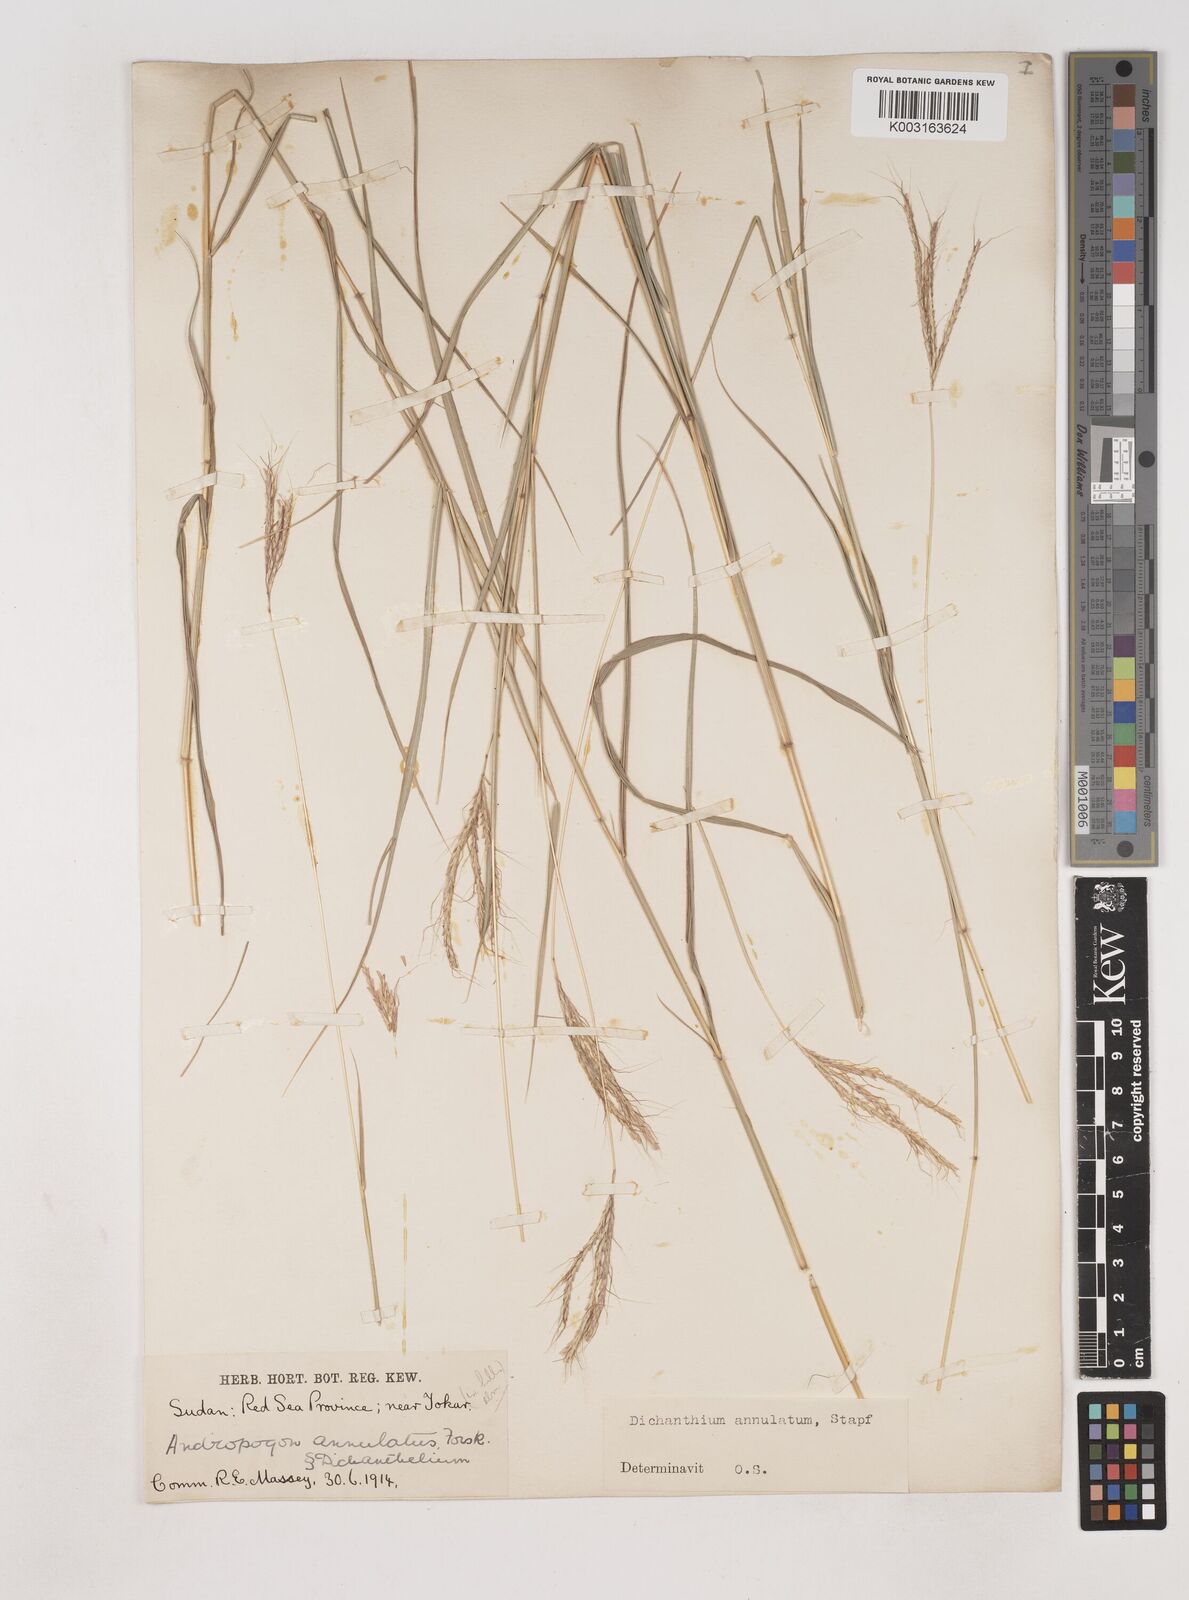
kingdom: Plantae
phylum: Tracheophyta
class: Liliopsida
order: Poales
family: Poaceae
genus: Dichanthium
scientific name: Dichanthium annulatum
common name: Kleberg's bluestem
